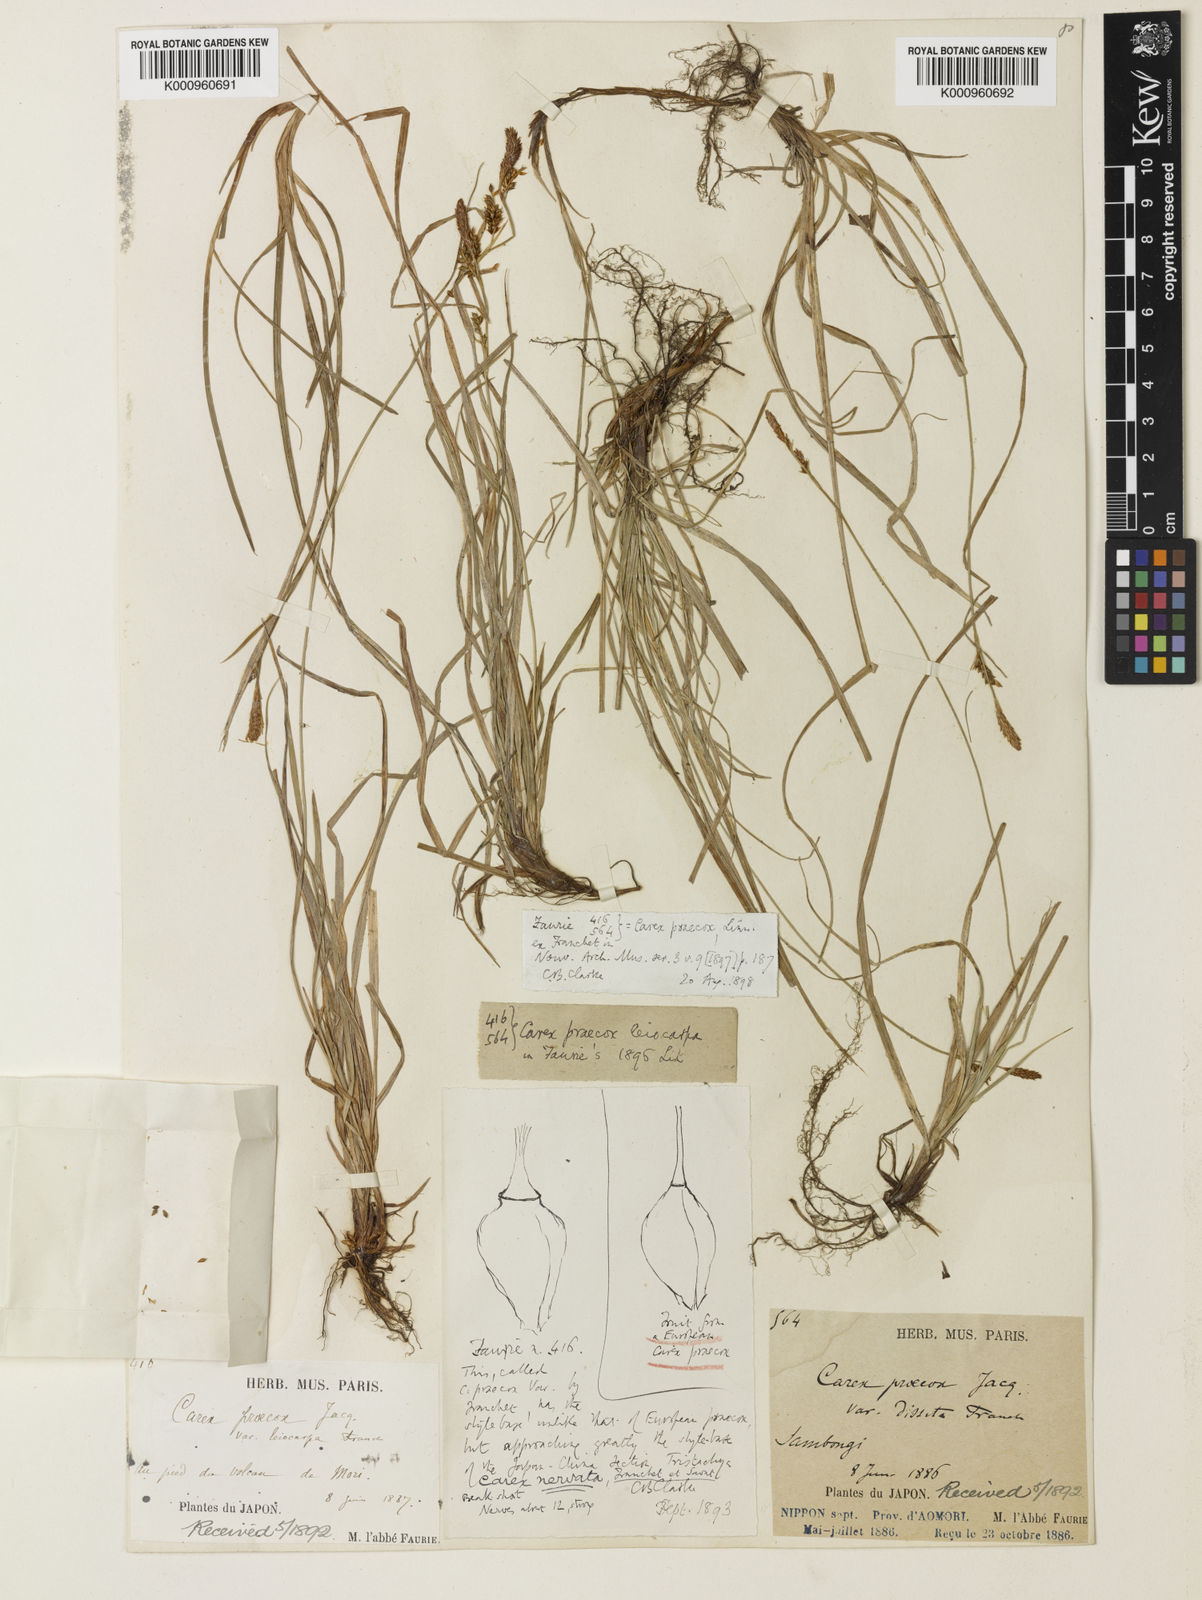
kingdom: Plantae
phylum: Tracheophyta
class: Liliopsida
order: Poales
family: Cyperaceae
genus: Carex
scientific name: Carex caryophyllea
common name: Spring sedge
